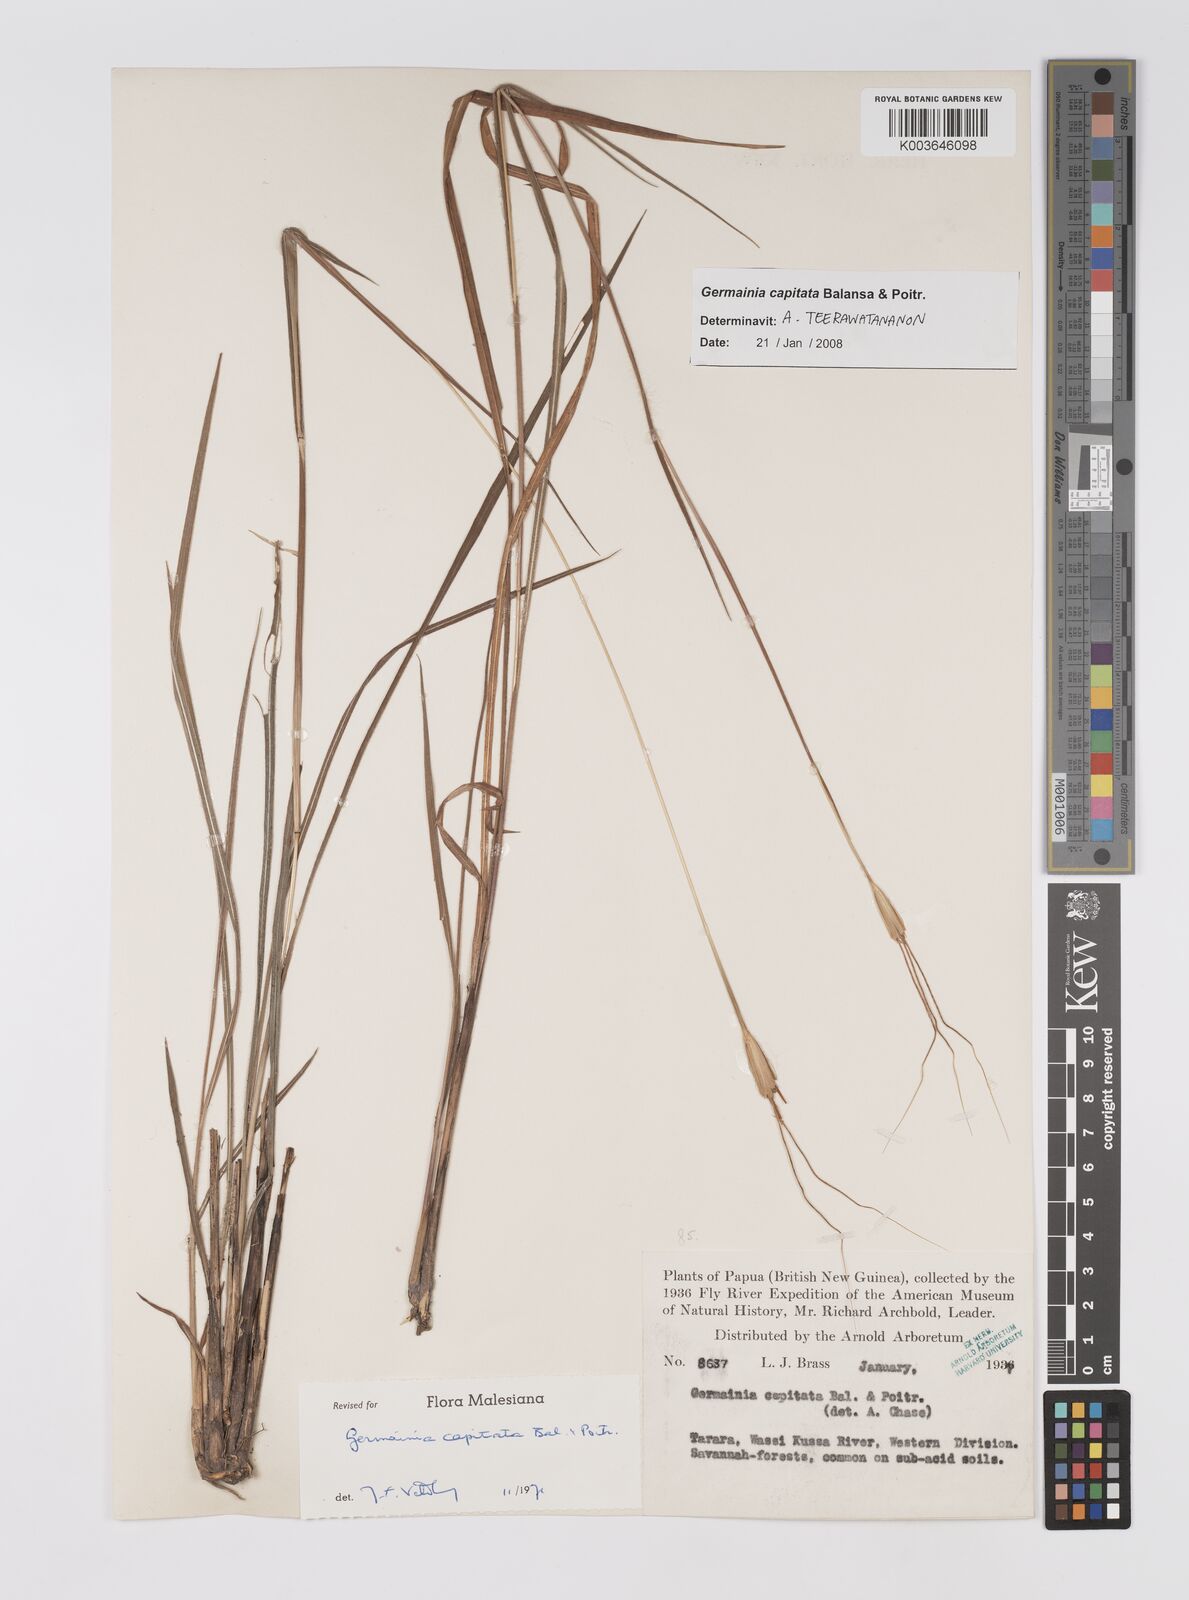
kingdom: Plantae
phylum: Tracheophyta
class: Liliopsida
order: Poales
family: Poaceae
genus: Germainia
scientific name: Germainia capitata
